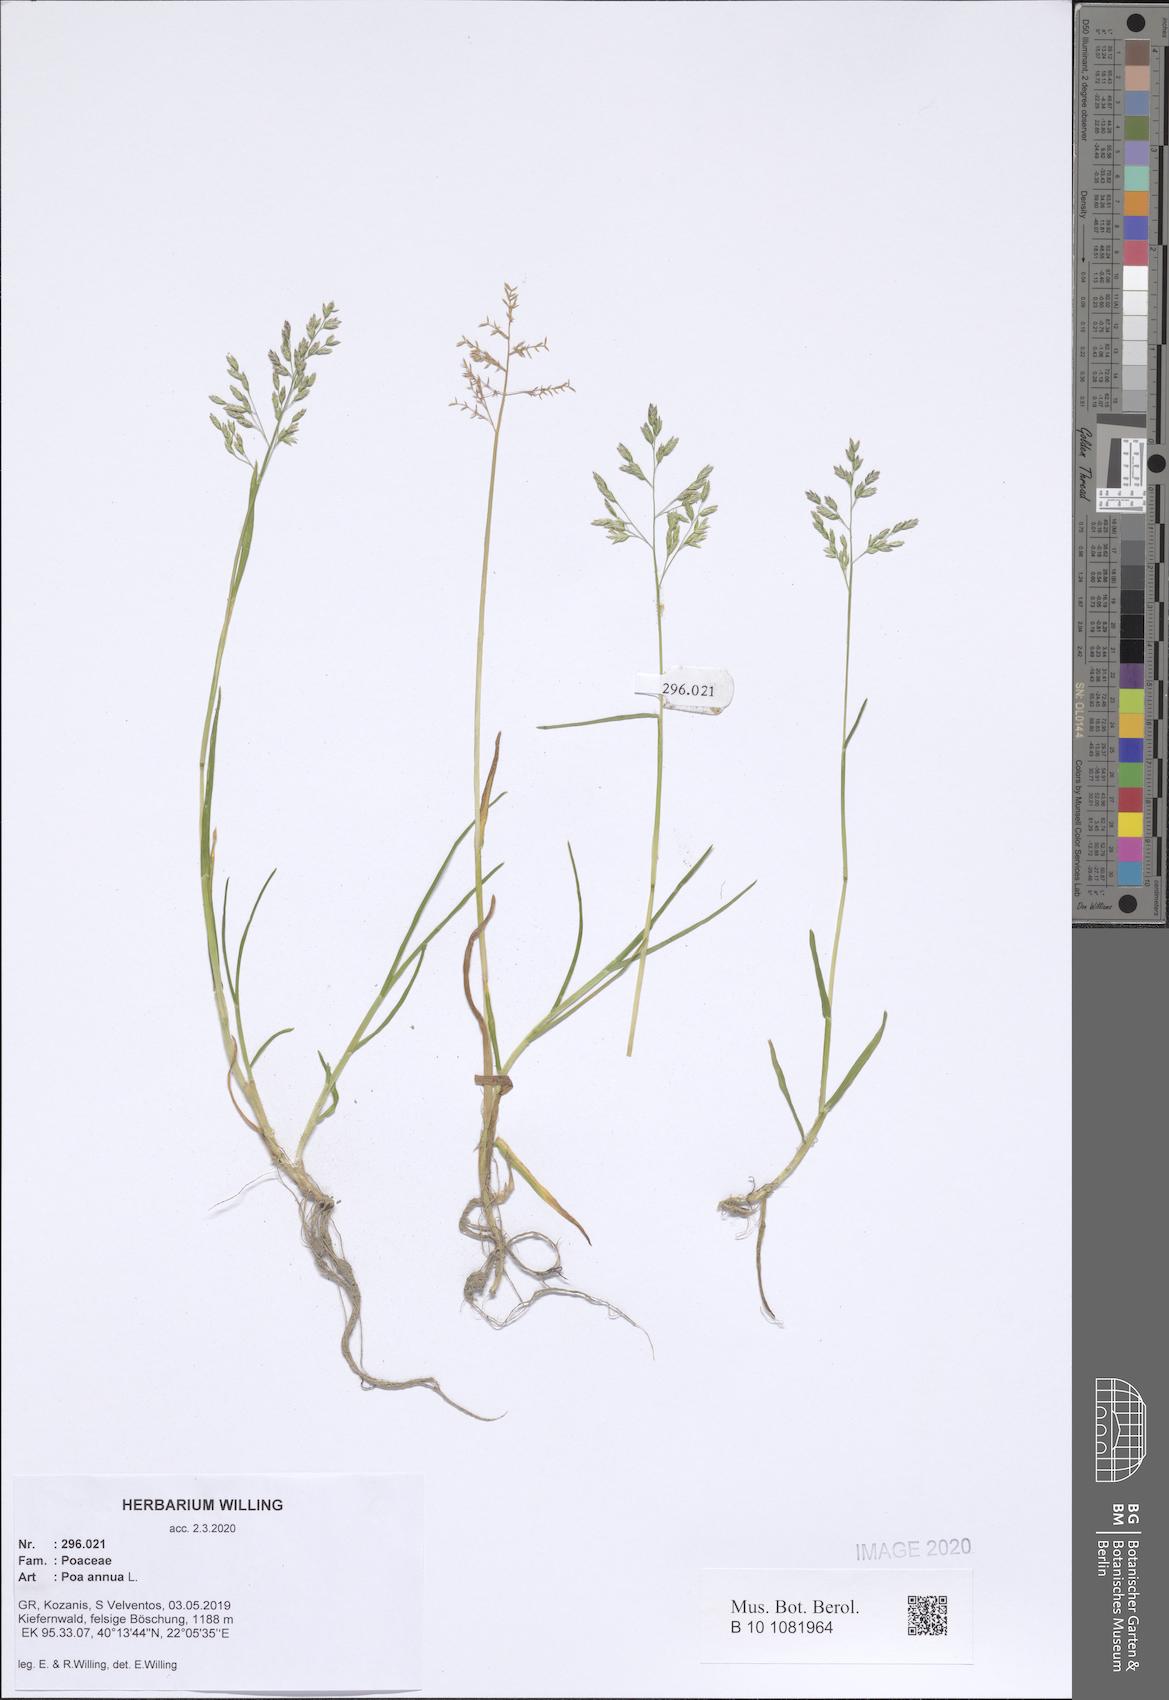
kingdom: Plantae
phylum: Tracheophyta
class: Liliopsida
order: Poales
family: Poaceae
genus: Poa
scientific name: Poa annua
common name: Annual bluegrass
